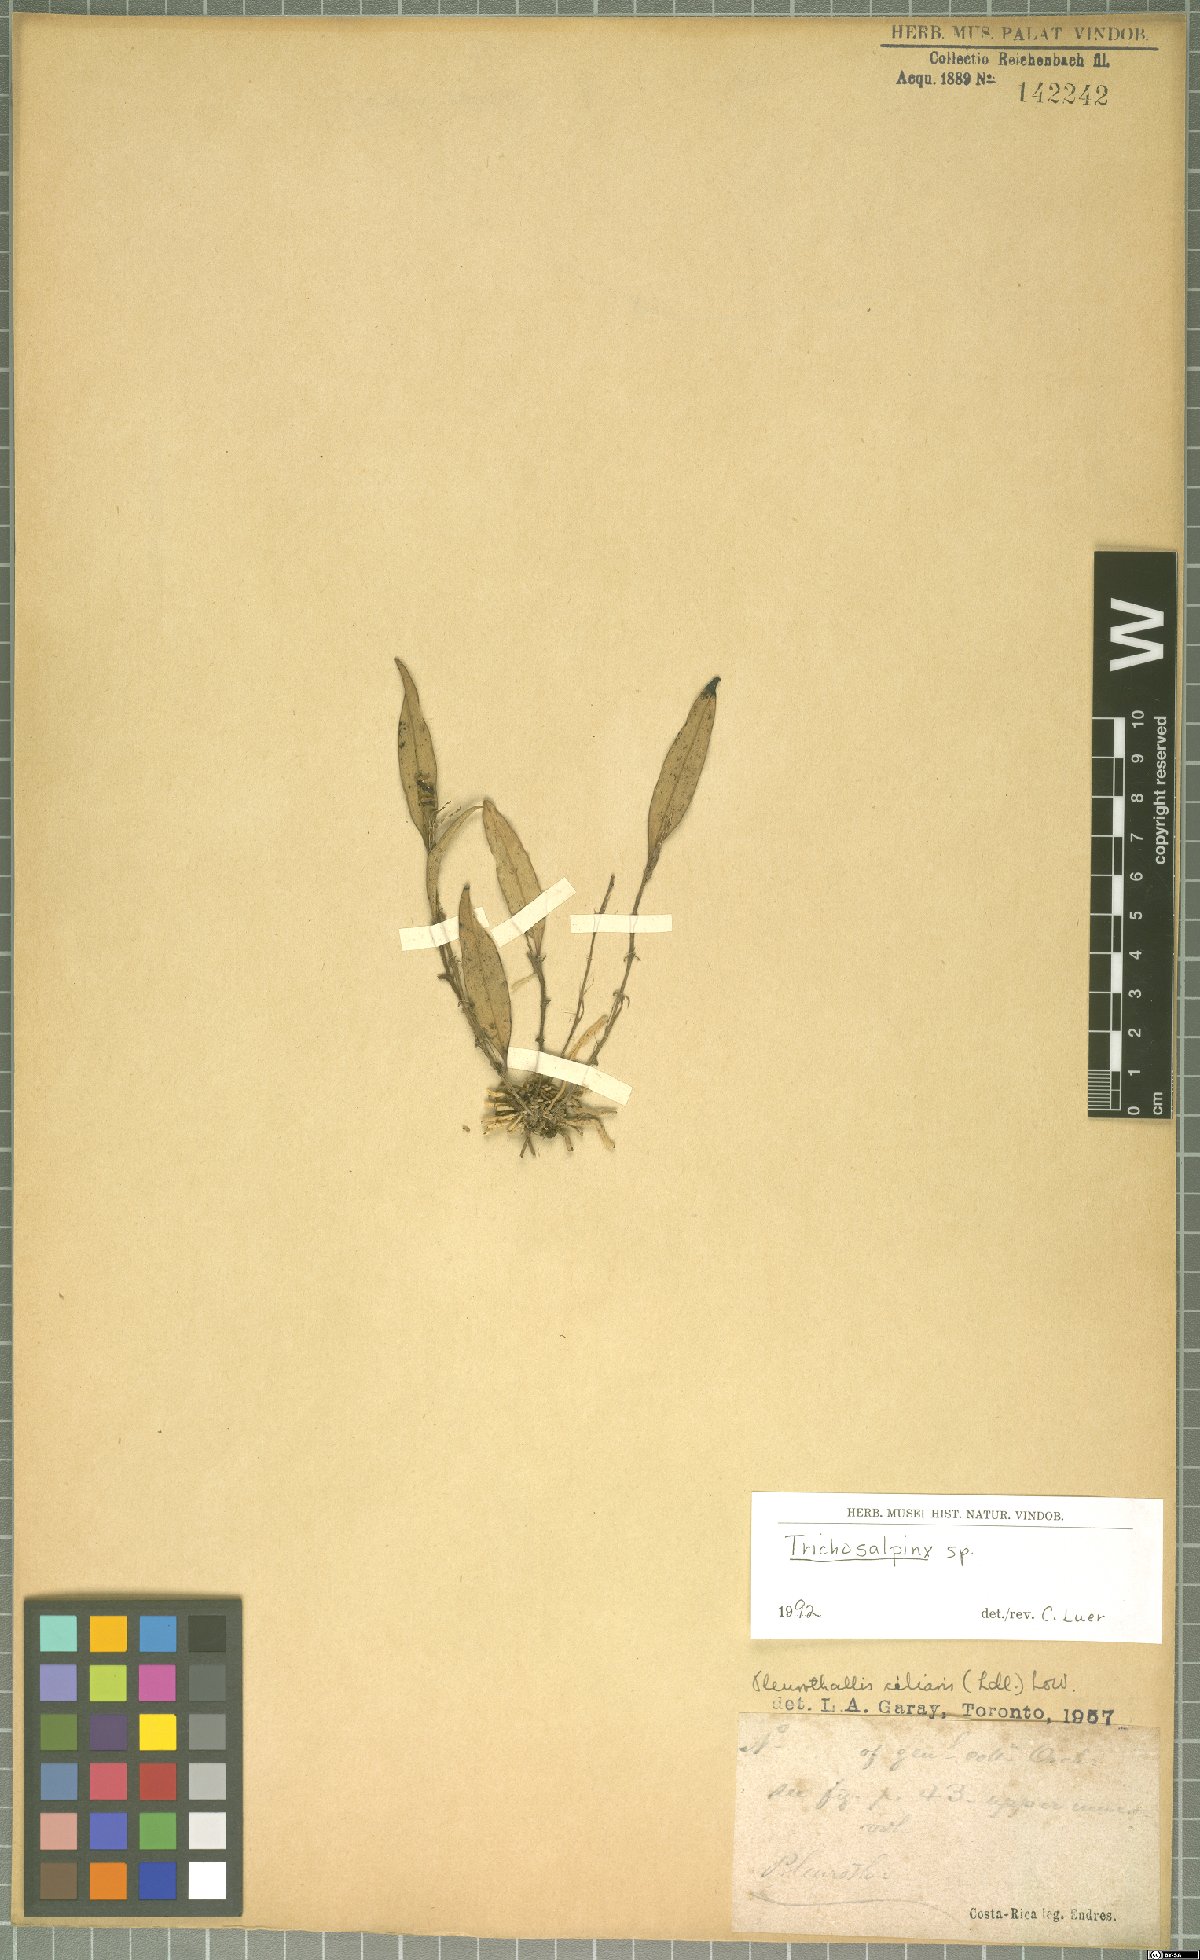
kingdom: Plantae
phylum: Tracheophyta
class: Liliopsida
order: Asparagales
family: Orchidaceae
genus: Trichosalpinx
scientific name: Trichosalpinx
